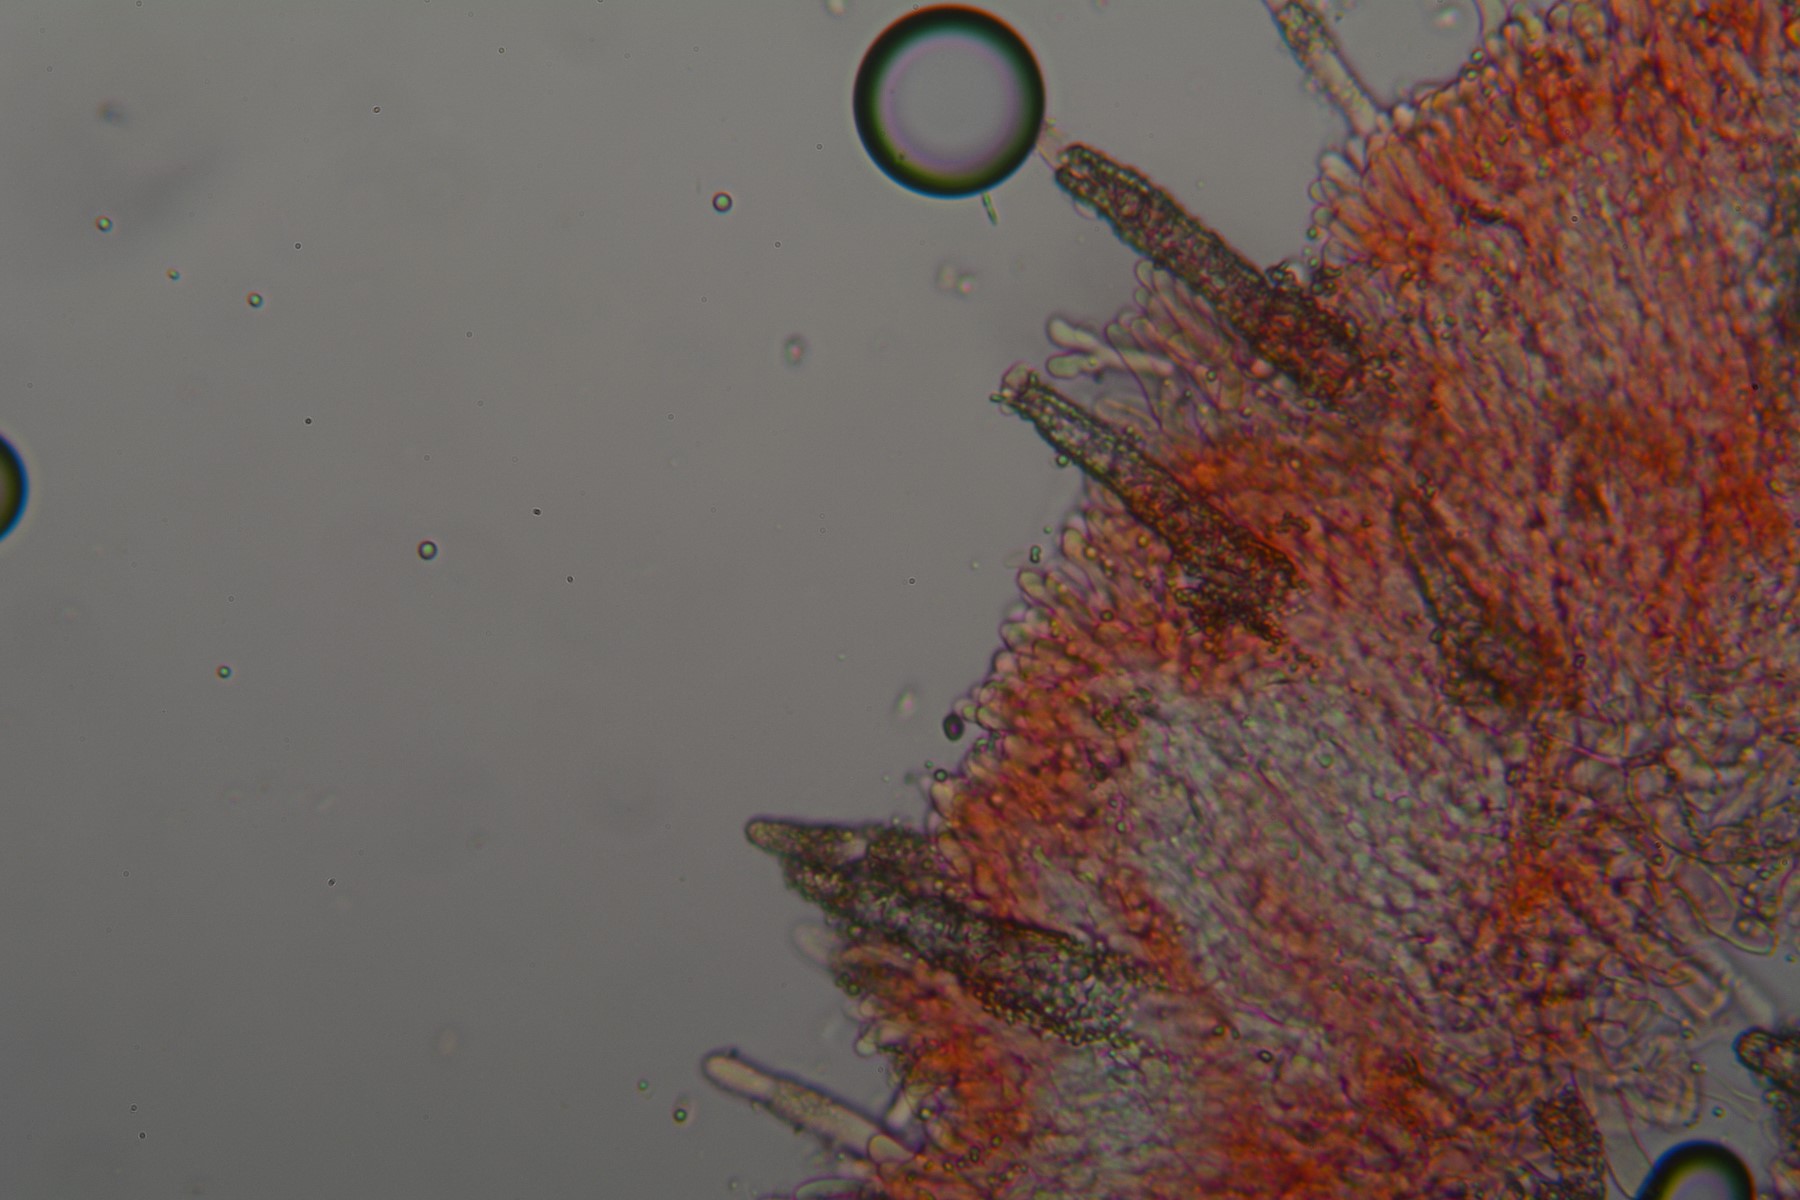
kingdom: Fungi
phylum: Basidiomycota
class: Agaricomycetes
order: Polyporales
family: Phanerochaetaceae
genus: Phanerochaete
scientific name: Phanerochaete velutina
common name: dunet randtråd
